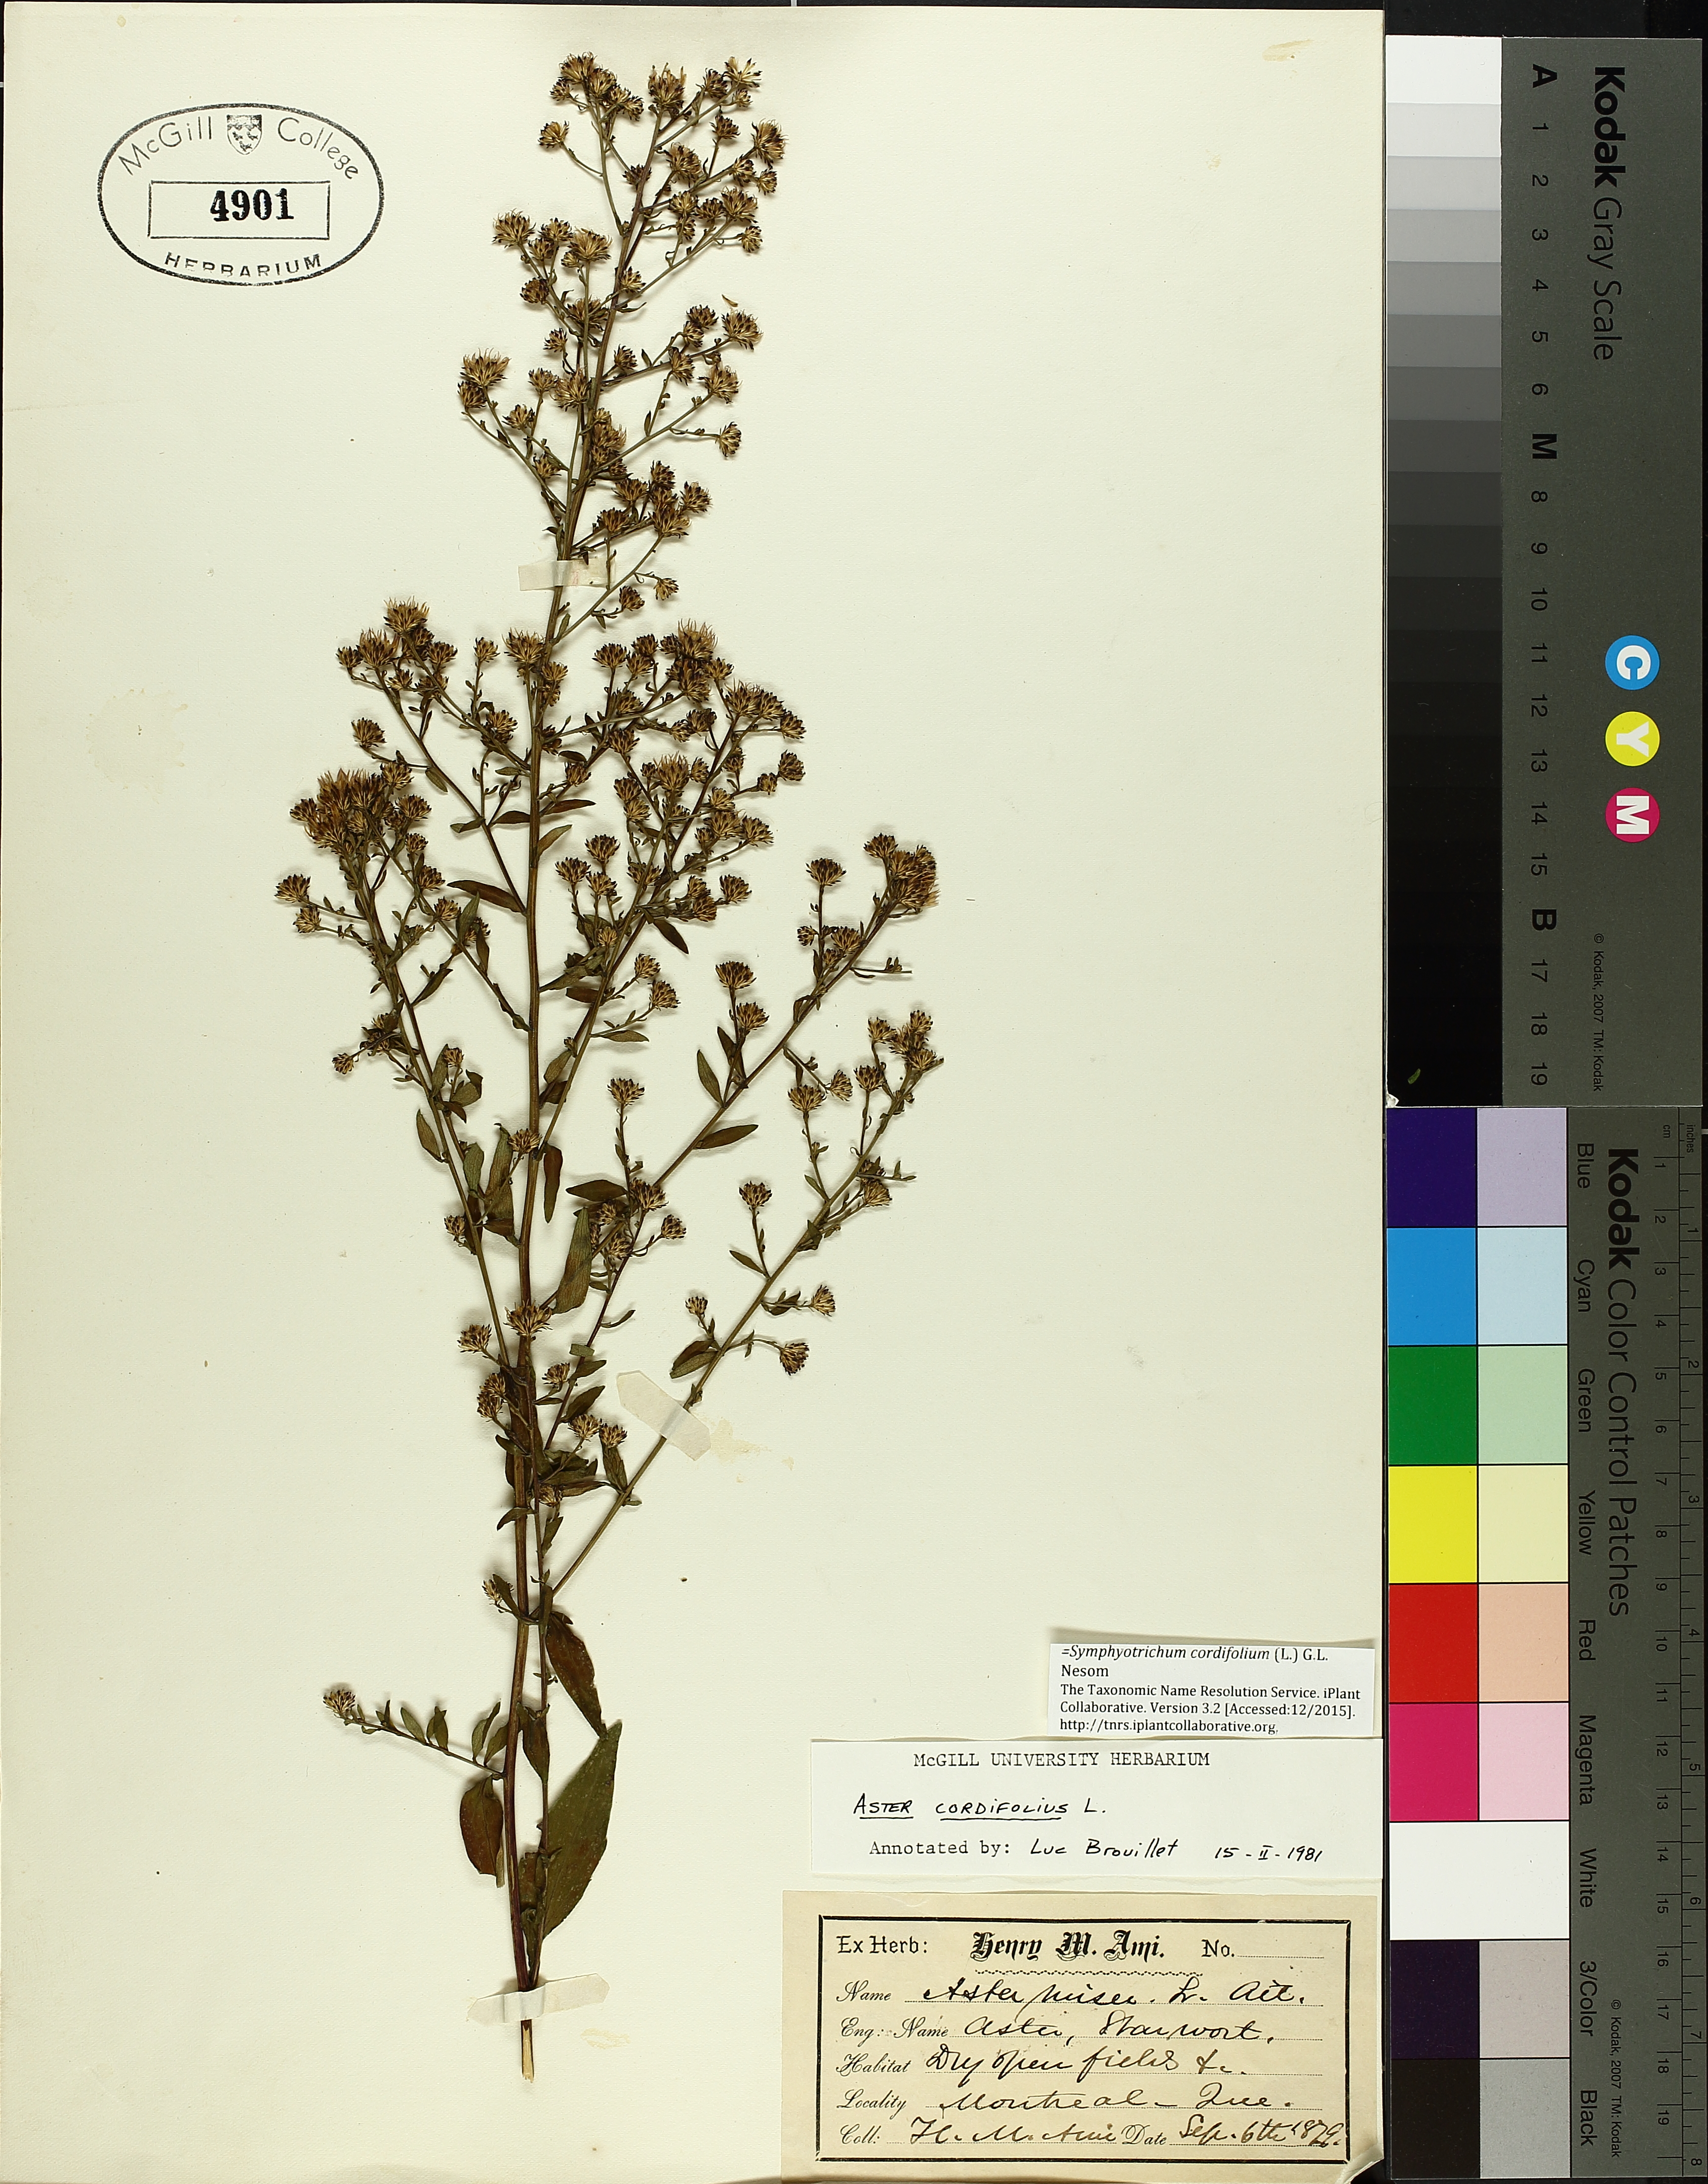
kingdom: Plantae
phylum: Tracheophyta
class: Liliopsida
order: Asparagales
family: Iridaceae
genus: Iris
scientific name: Iris setosa
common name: Arctic blue flag
